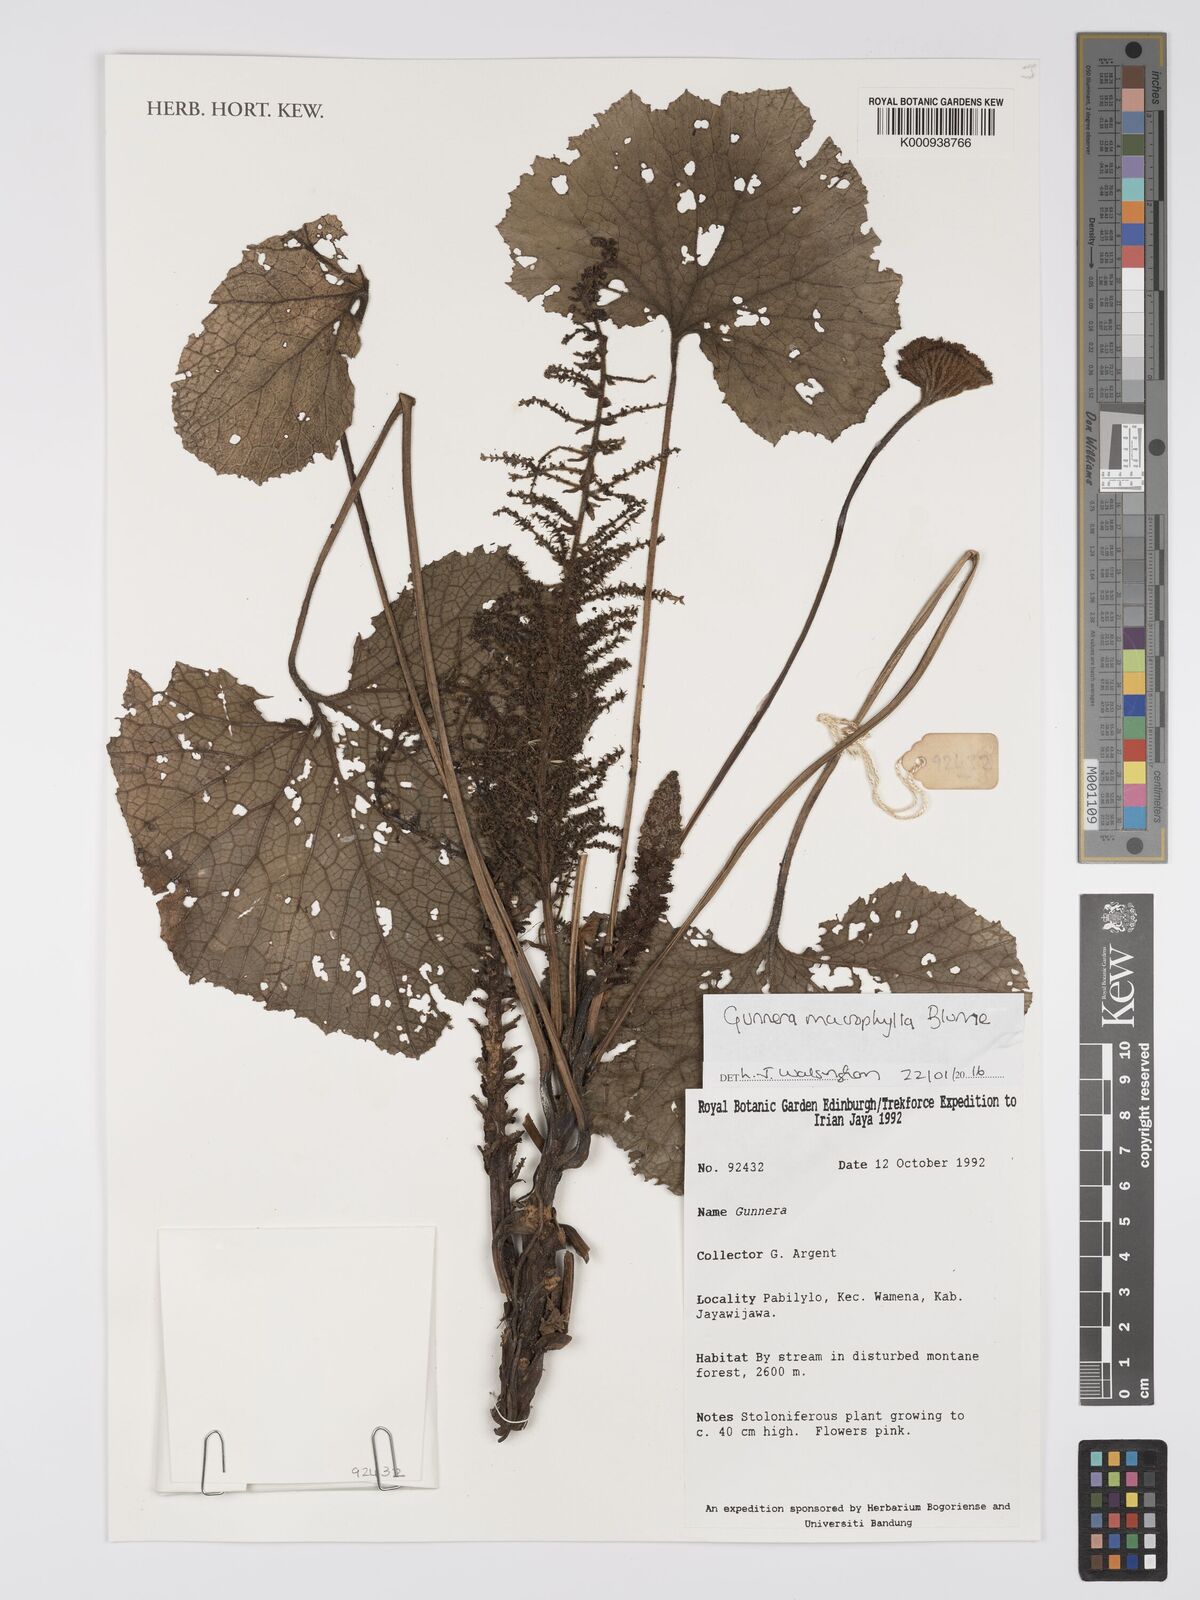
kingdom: Plantae
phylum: Tracheophyta
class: Magnoliopsida
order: Gunnerales
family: Gunneraceae
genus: Gunnera
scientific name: Gunnera macrophylla
